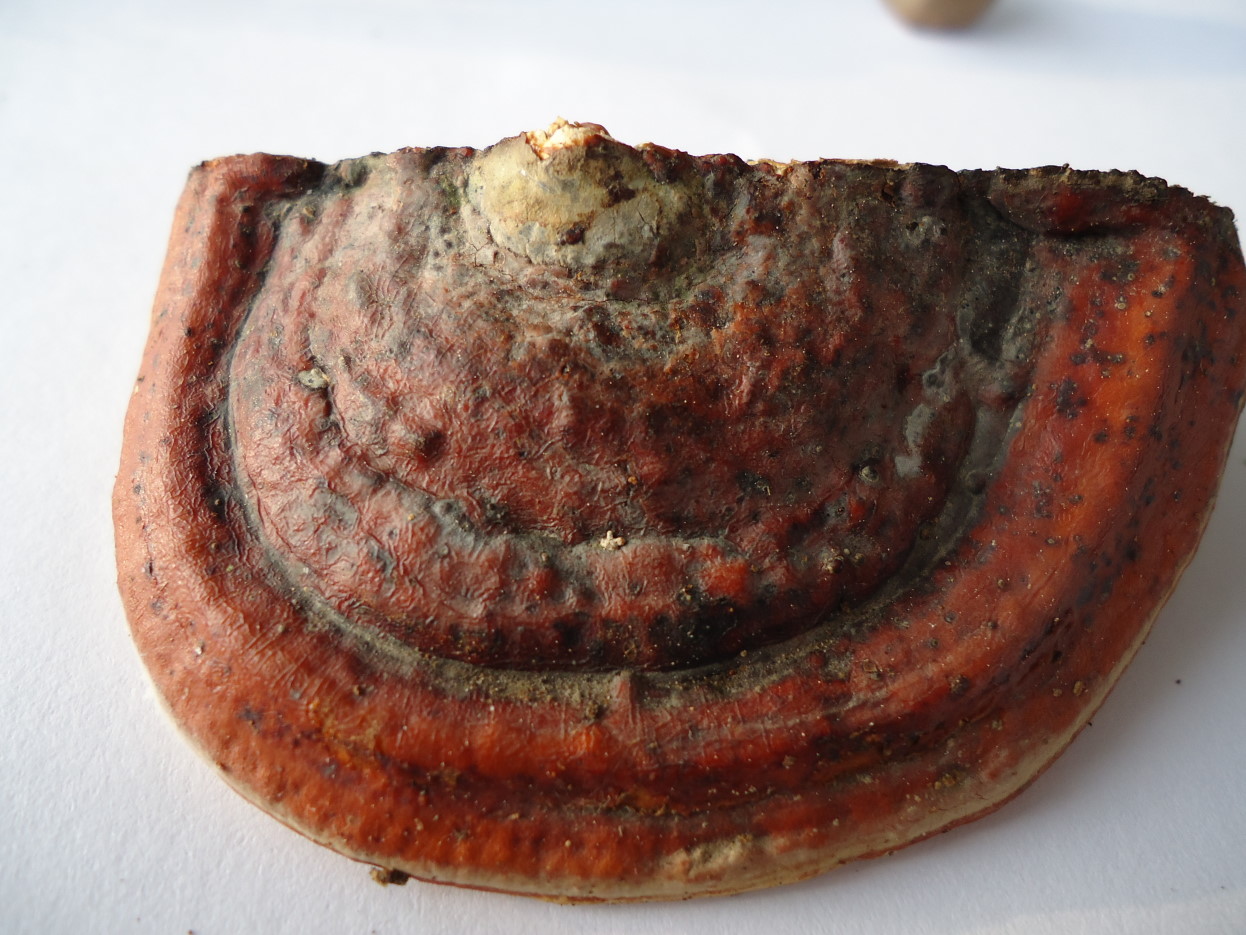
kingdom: Fungi
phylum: Basidiomycota
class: Agaricomycetes
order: Polyporales
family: Fomitopsidaceae
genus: Fomitopsis
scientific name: Fomitopsis pinicola
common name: randbæltet hovporesvamp
